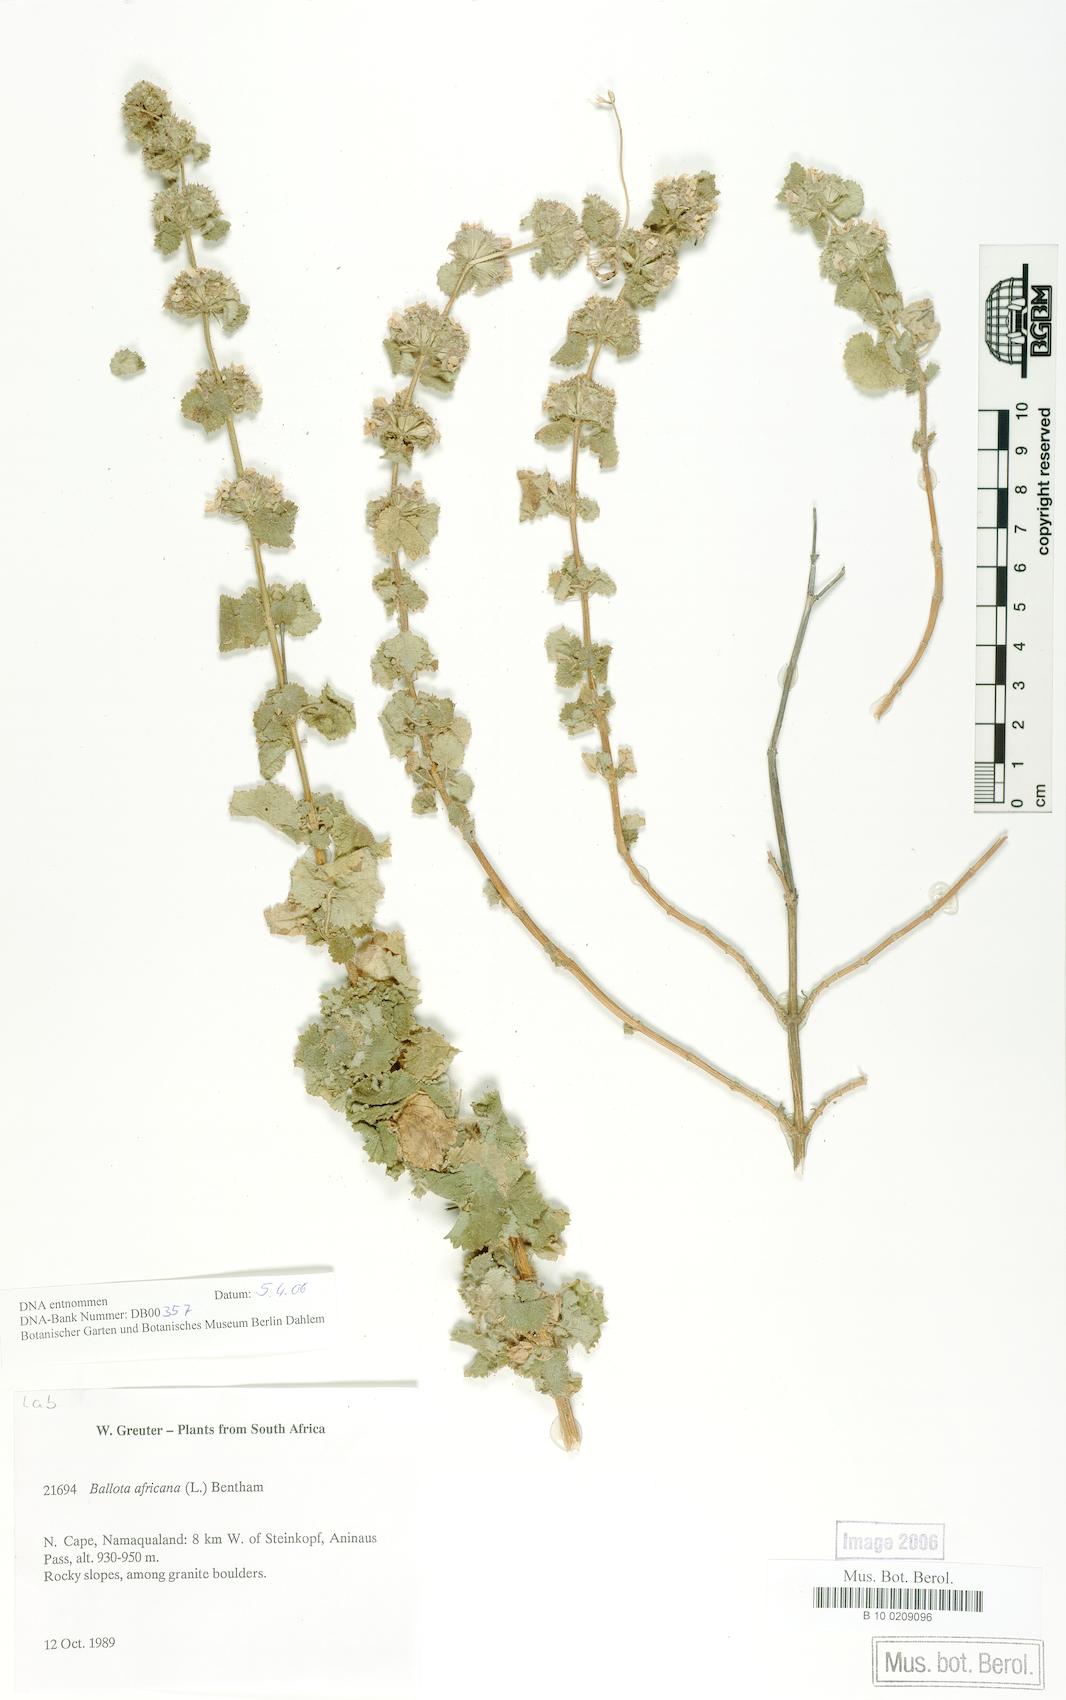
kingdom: Plantae
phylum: Tracheophyta
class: Magnoliopsida
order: Lamiales
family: Lamiaceae
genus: Pseudodictamnus
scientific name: Pseudodictamnus africanus
